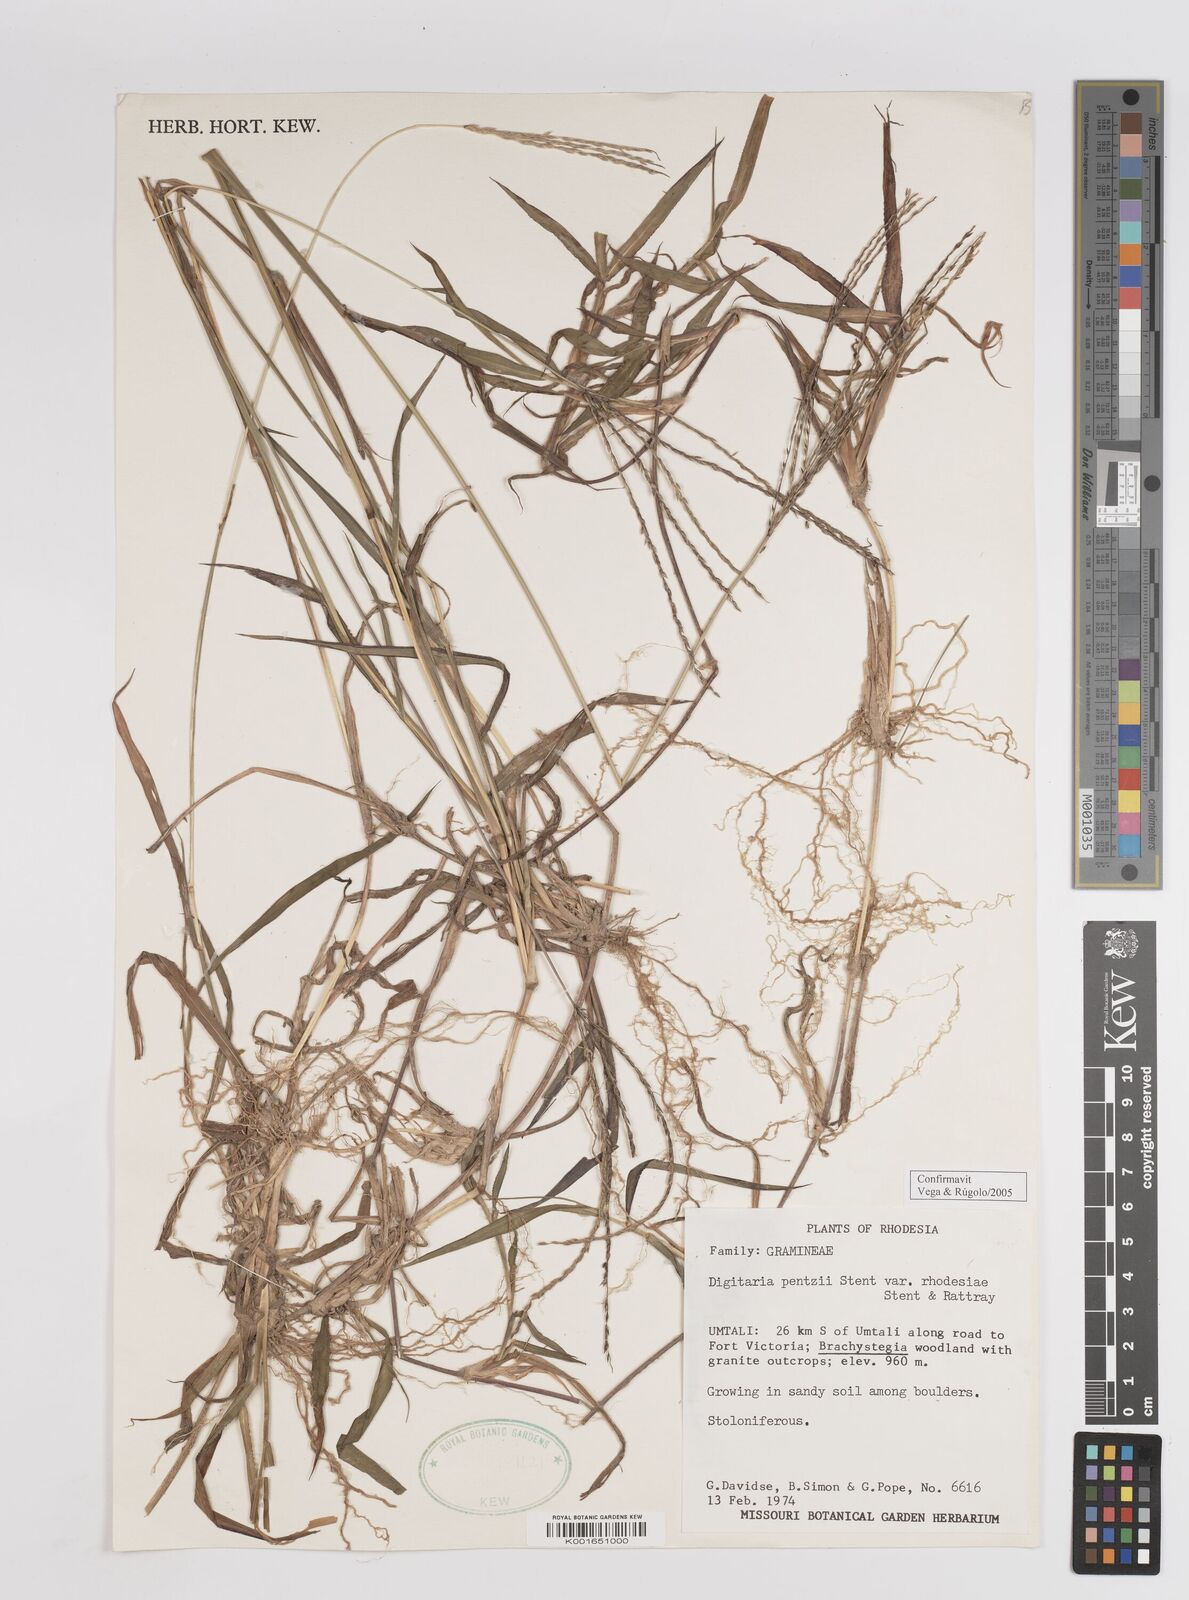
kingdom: Plantae
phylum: Tracheophyta
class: Liliopsida
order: Poales
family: Poaceae
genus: Digitaria
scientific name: Digitaria eriantha
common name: Digitgrass
